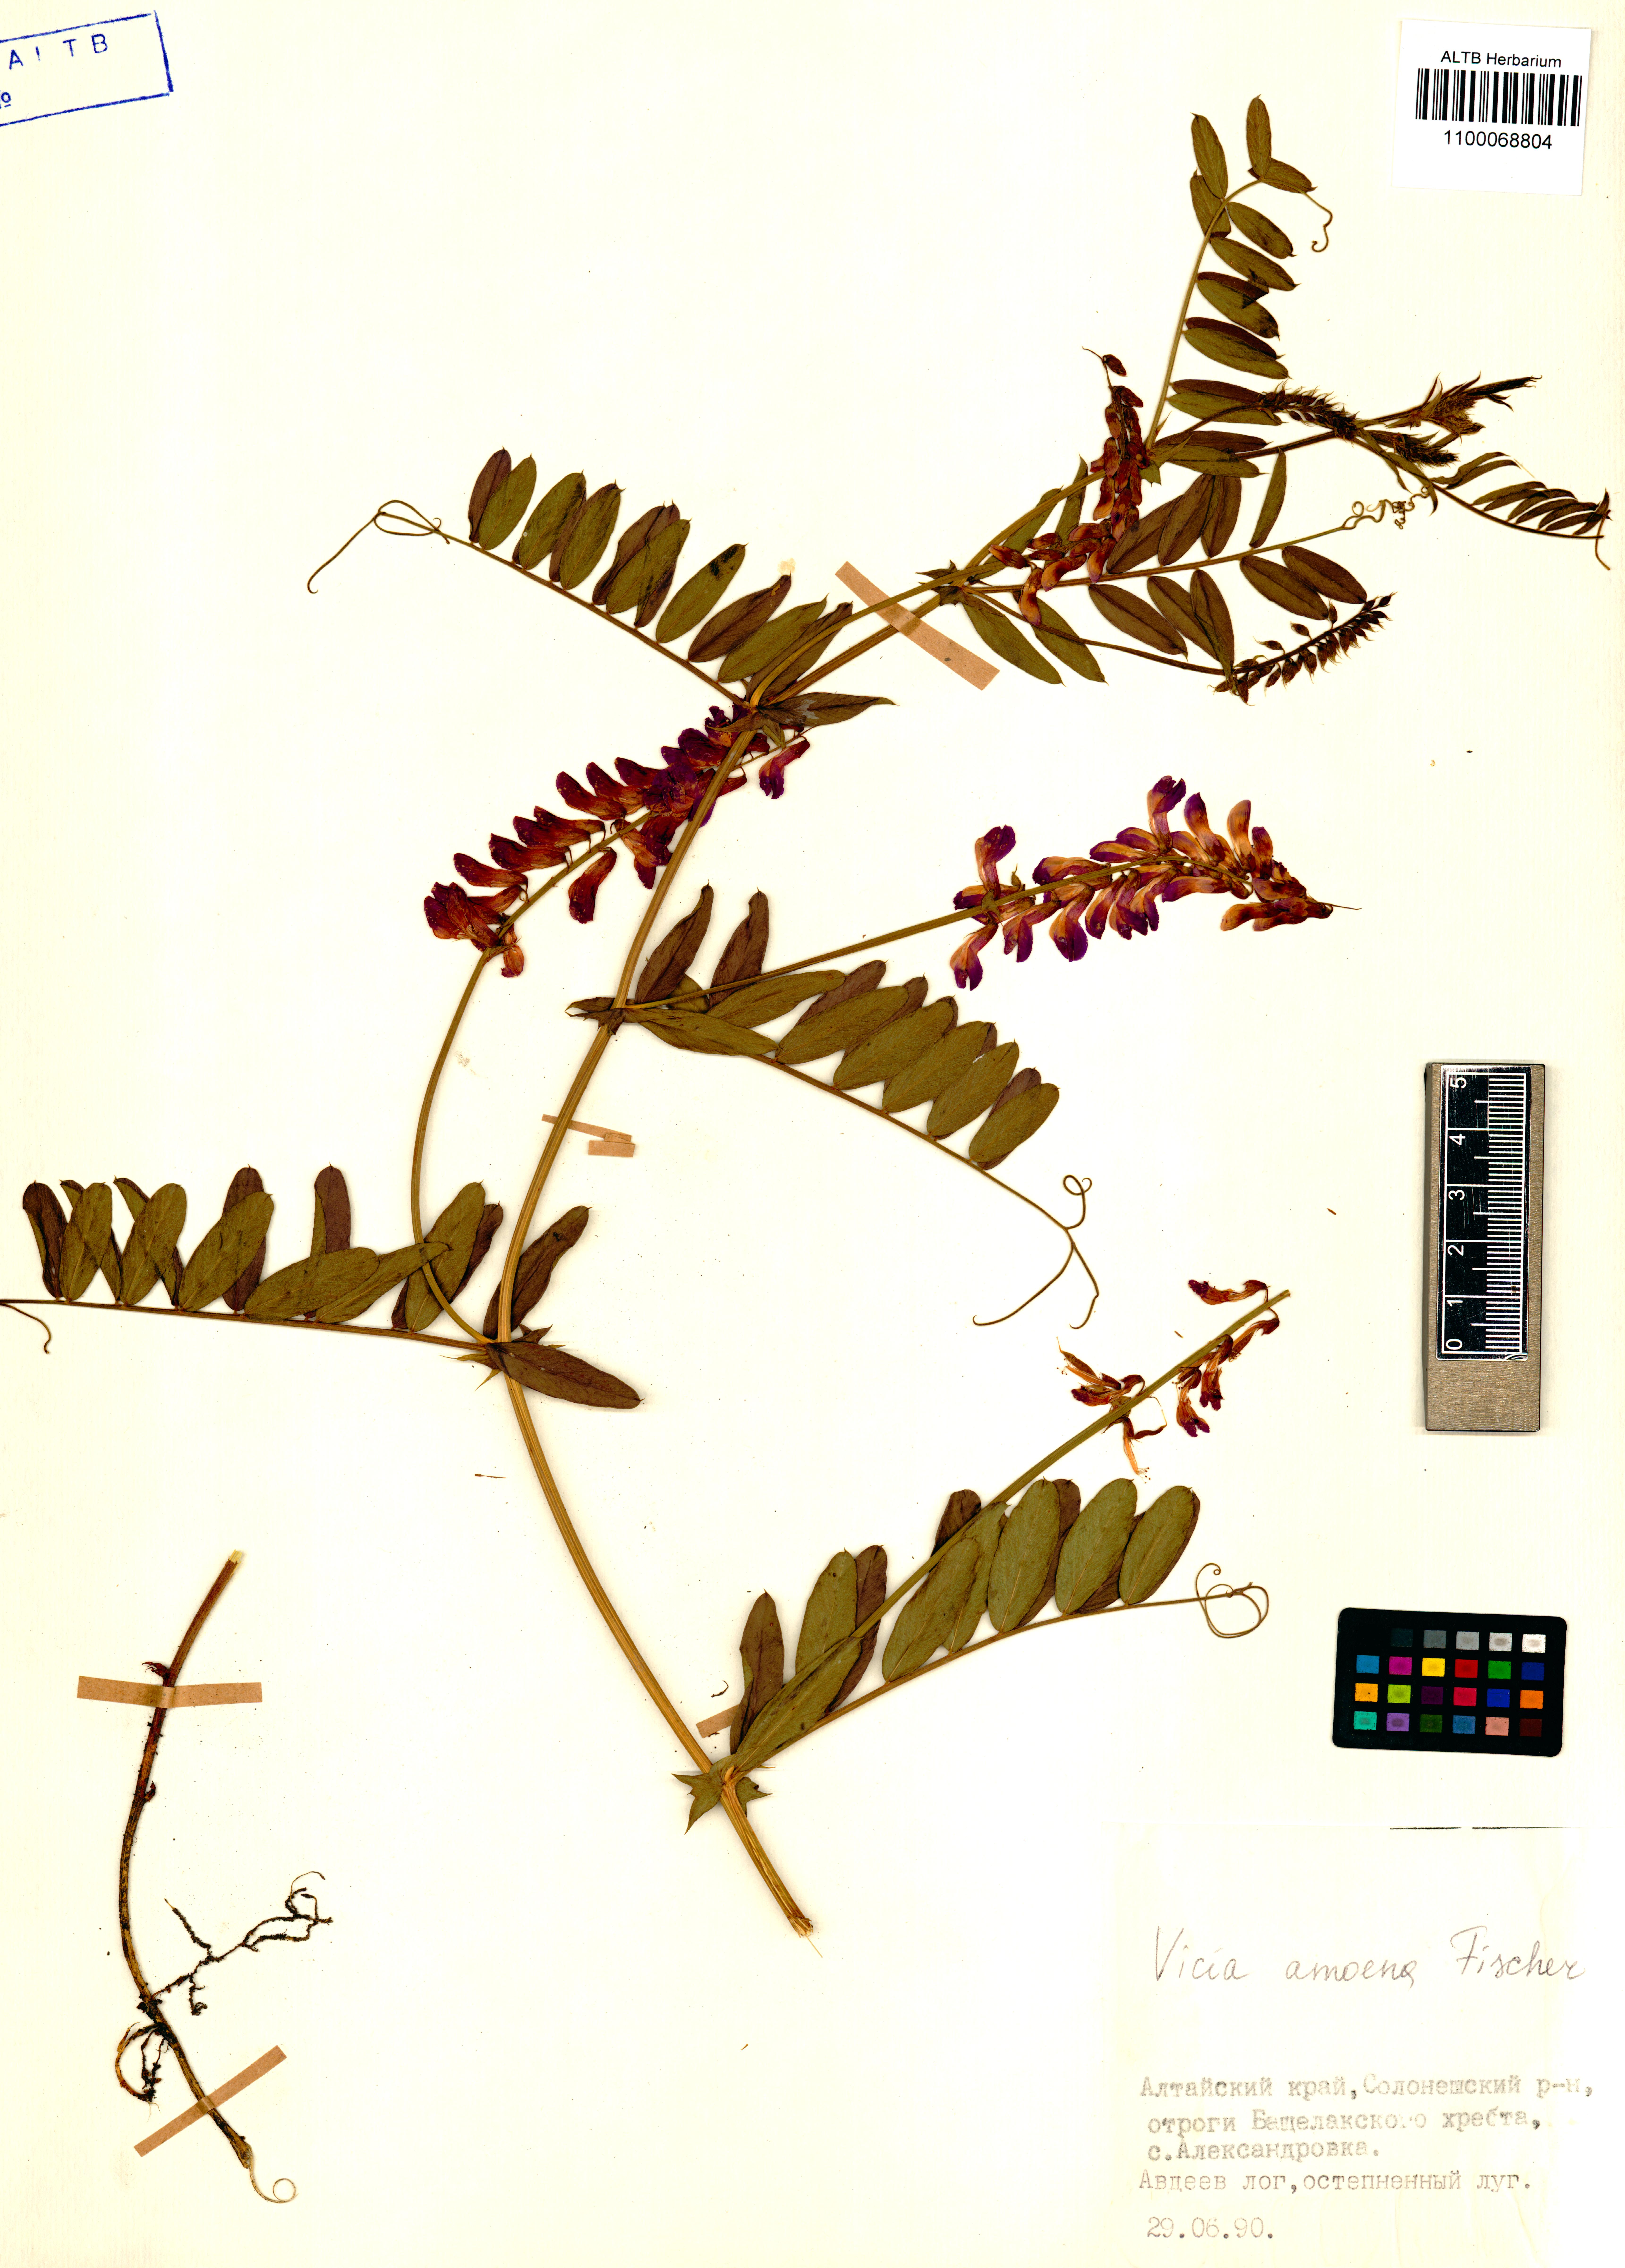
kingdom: Plantae
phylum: Tracheophyta
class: Magnoliopsida
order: Fabales
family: Fabaceae
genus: Vicia
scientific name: Vicia amoena
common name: Cheder ebs
